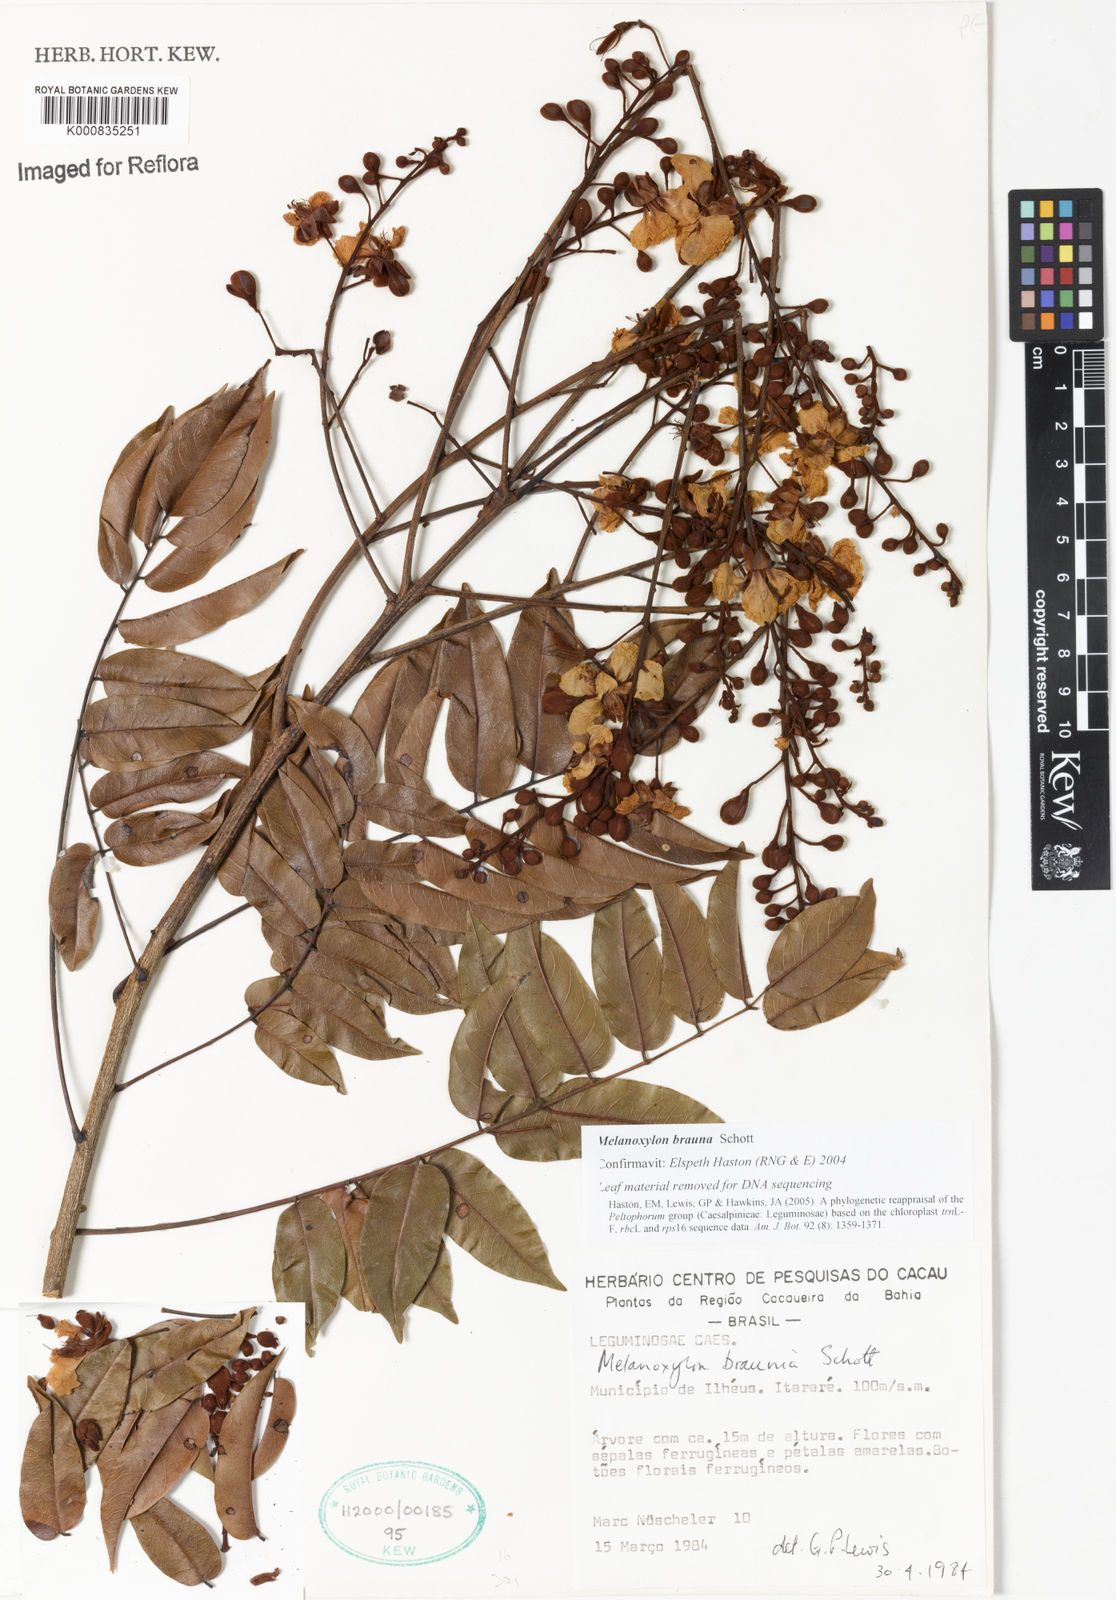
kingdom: Plantae
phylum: Tracheophyta
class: Magnoliopsida
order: Fabales
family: Fabaceae
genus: Melanoxylum
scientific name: Melanoxylum brauna
